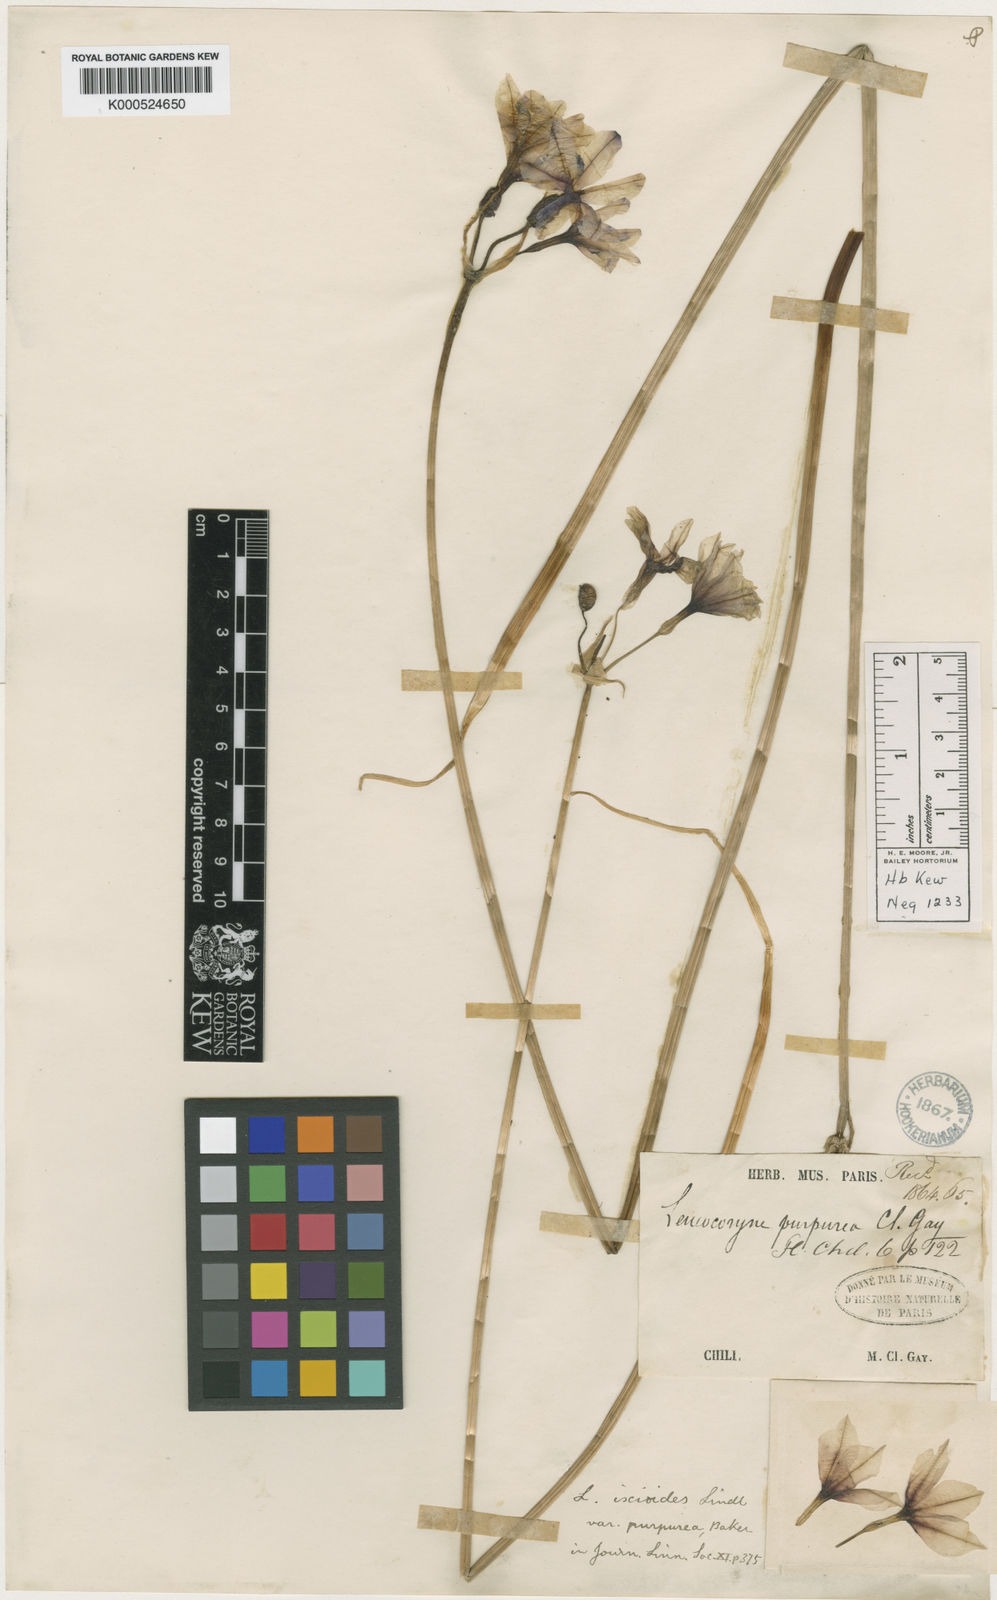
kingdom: Plantae
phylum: Tracheophyta
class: Liliopsida
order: Asparagales
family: Amaryllidaceae
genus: Leucocoryne
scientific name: Leucocoryne purpurea
